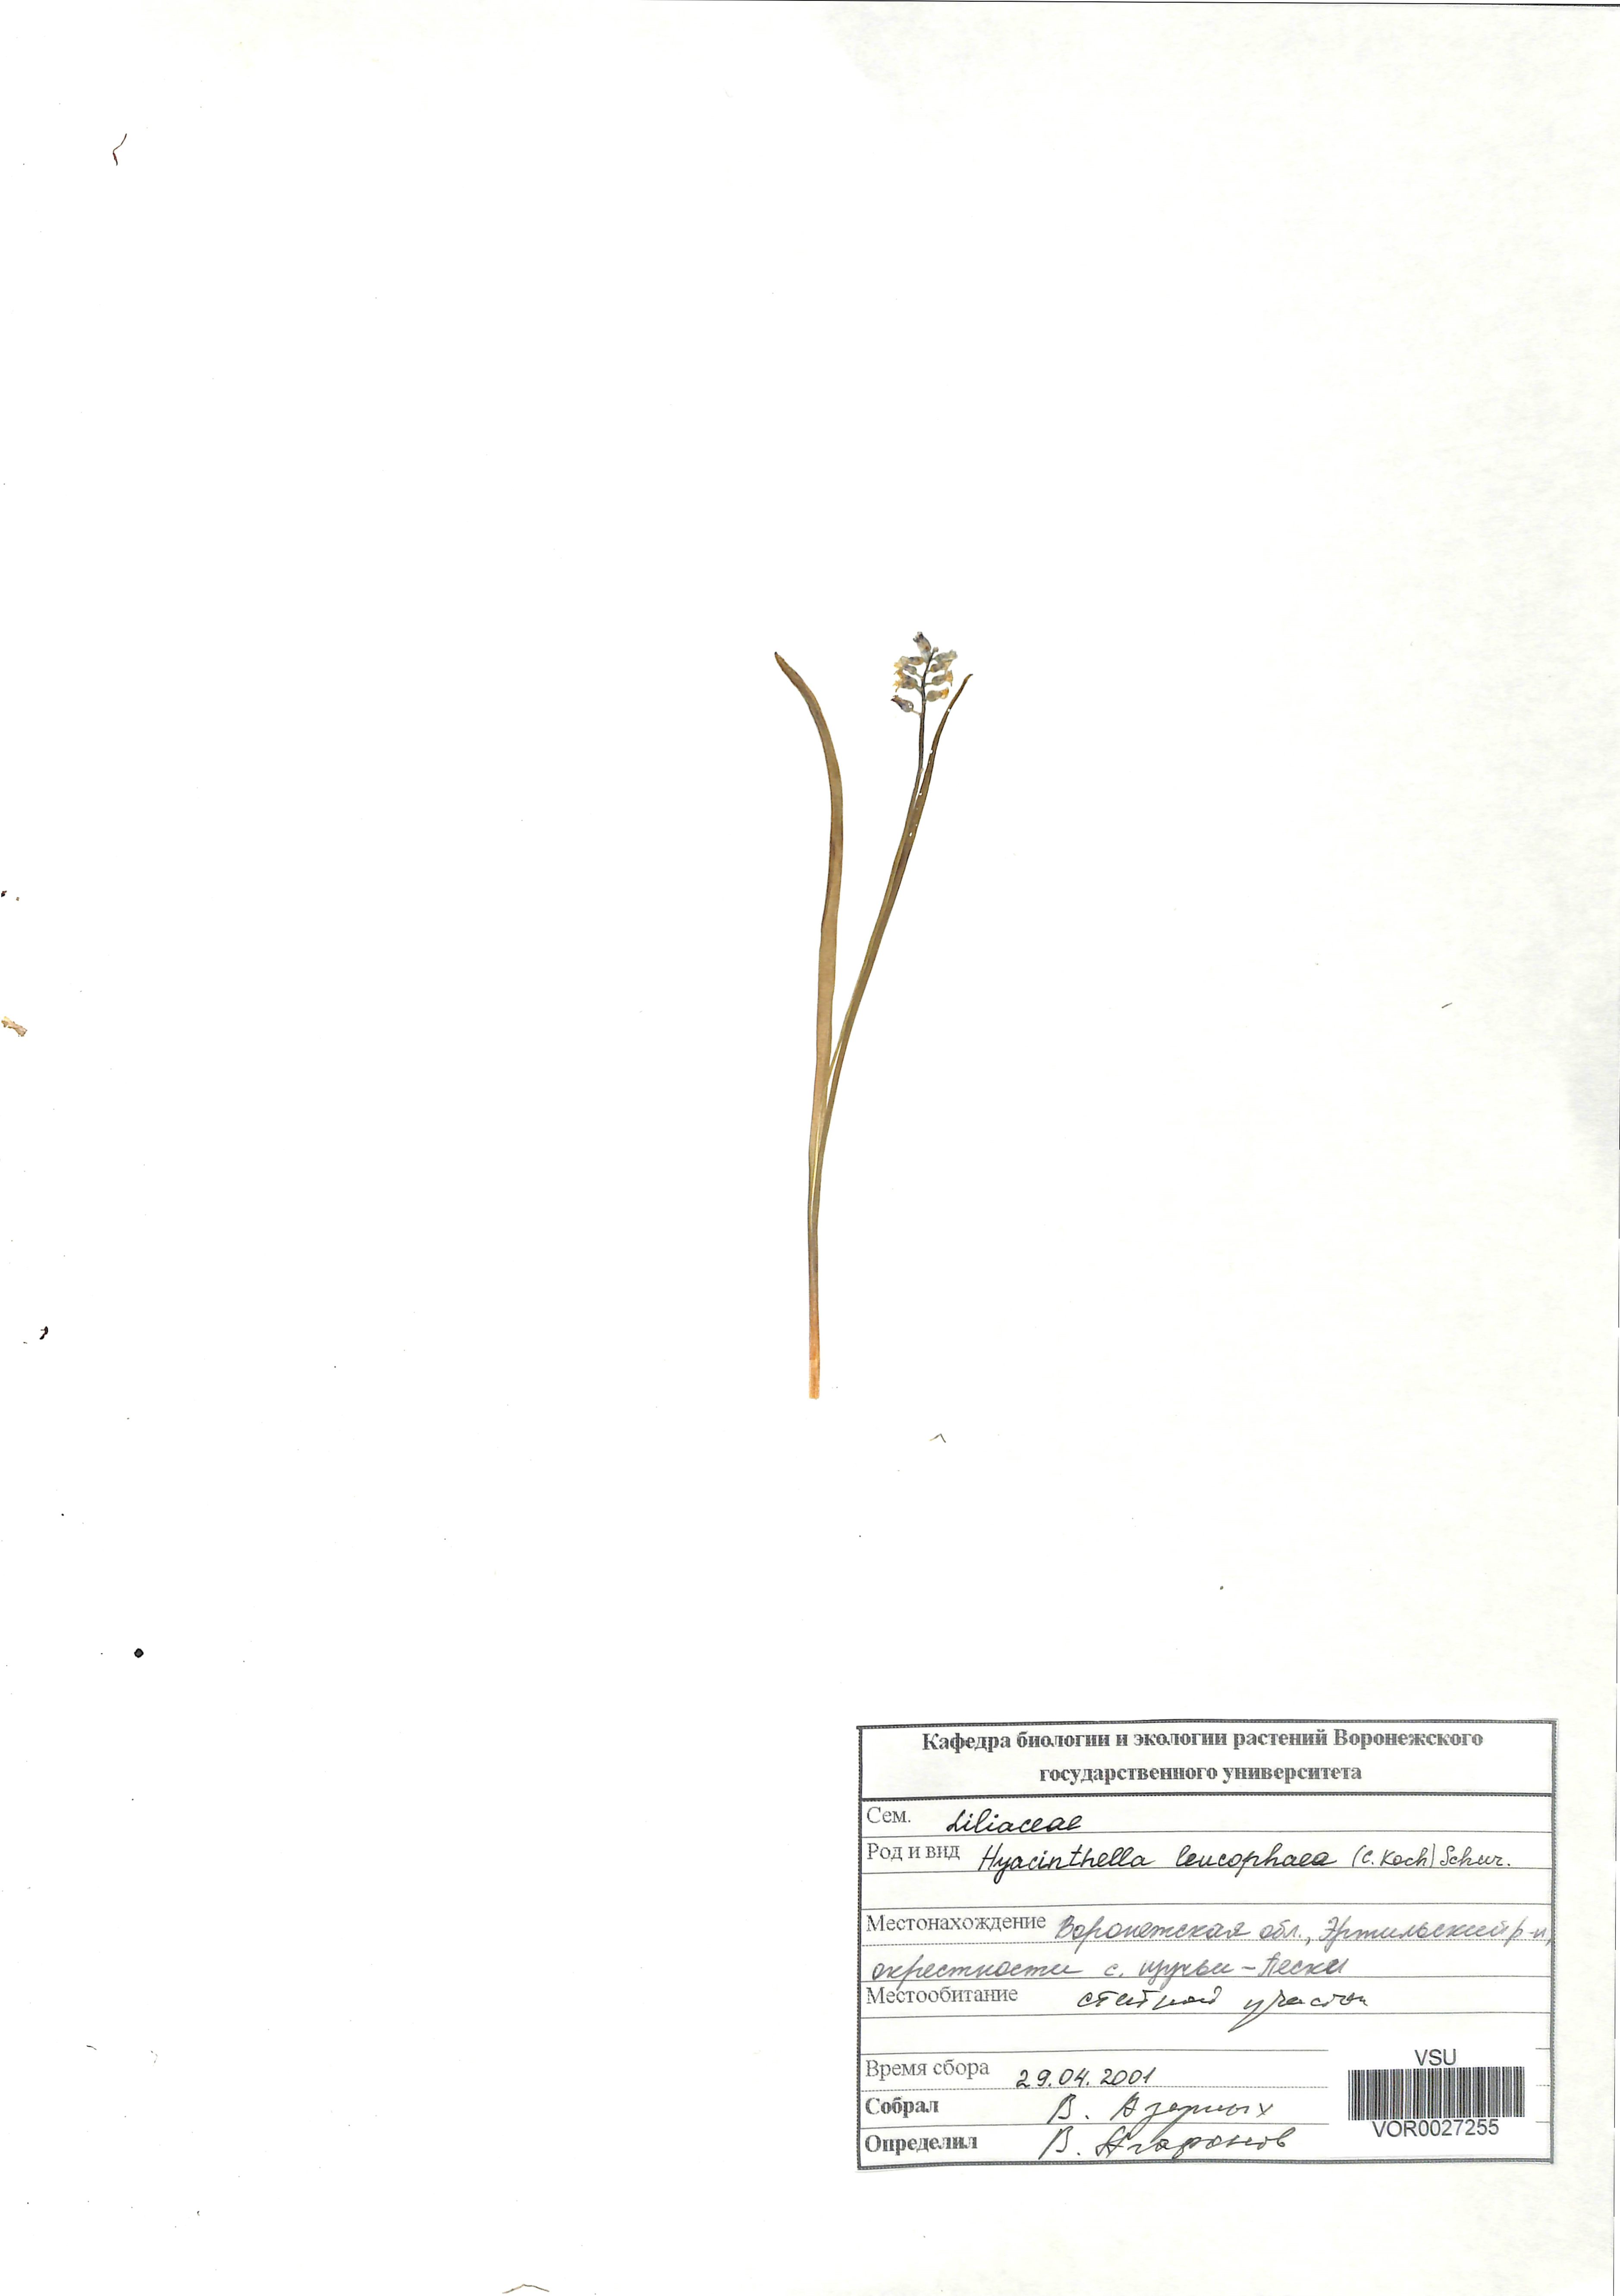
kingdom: Plantae
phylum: Tracheophyta
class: Liliopsida
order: Asparagales
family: Asparagaceae
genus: Hyacinthella
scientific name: Hyacinthella leucophaea
